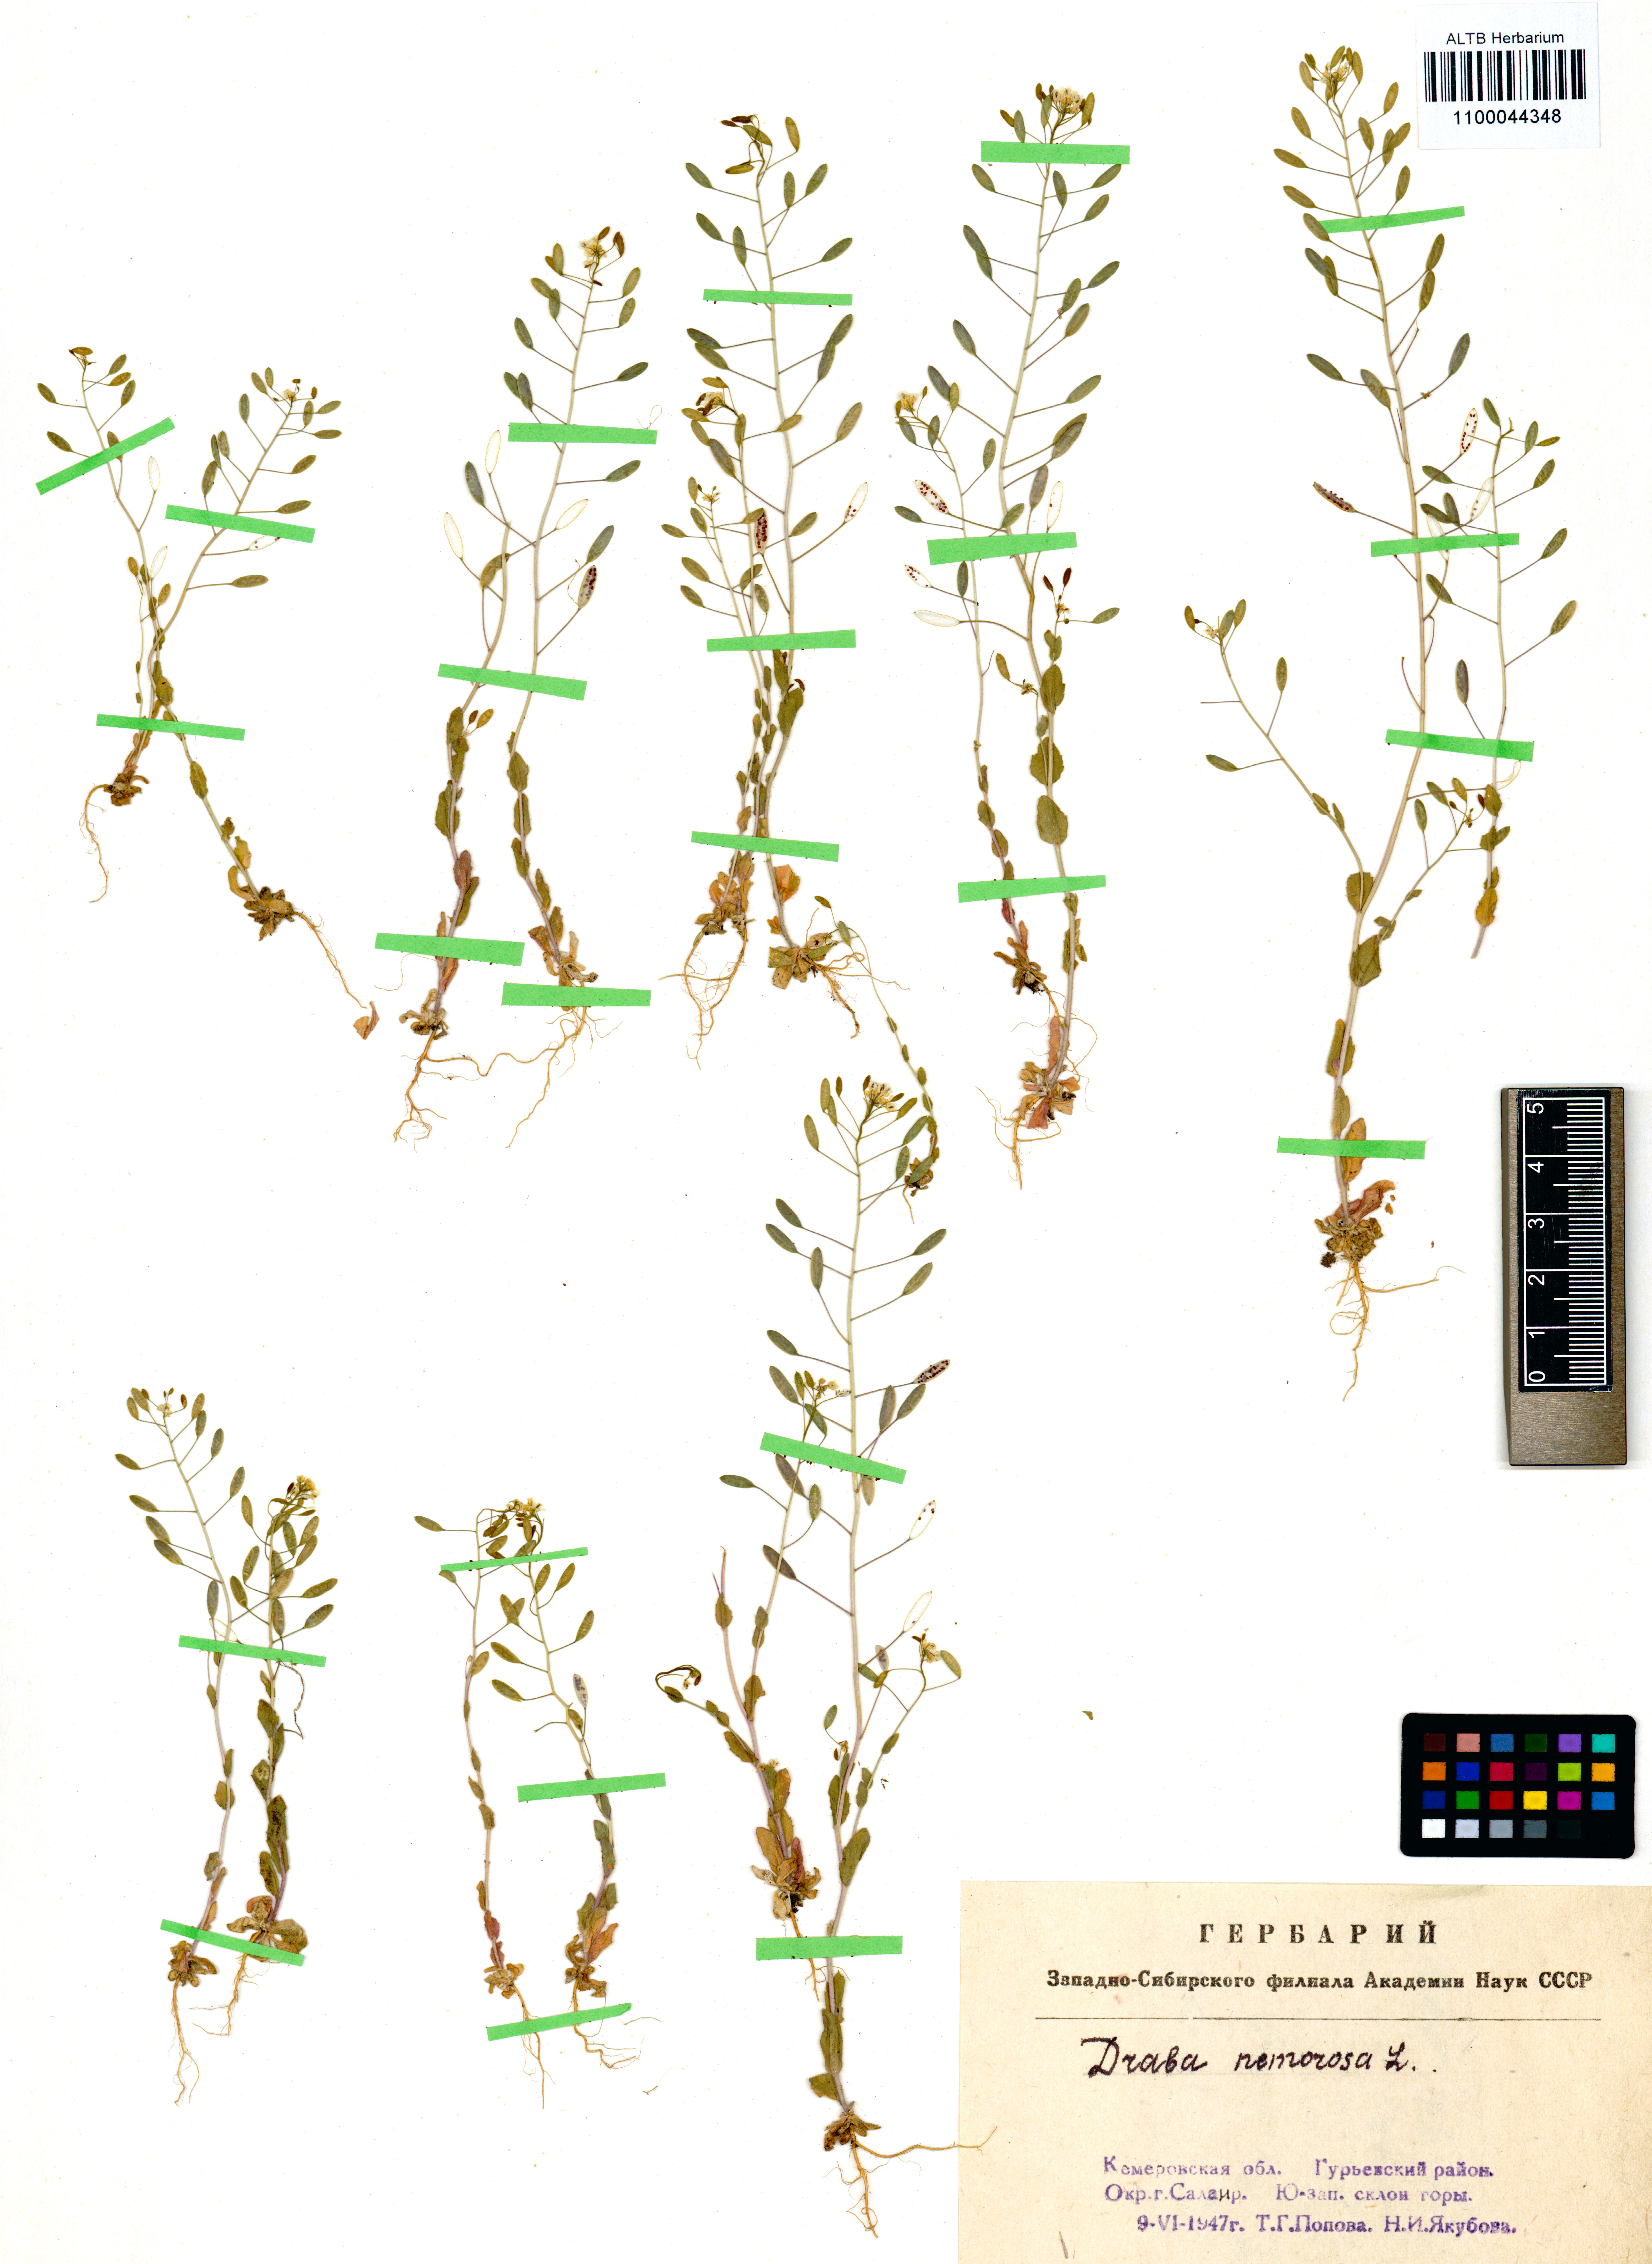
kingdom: Plantae
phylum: Tracheophyta
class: Magnoliopsida
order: Brassicales
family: Brassicaceae
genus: Draba
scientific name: Draba nemorosa
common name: Wood whitlow-grass
